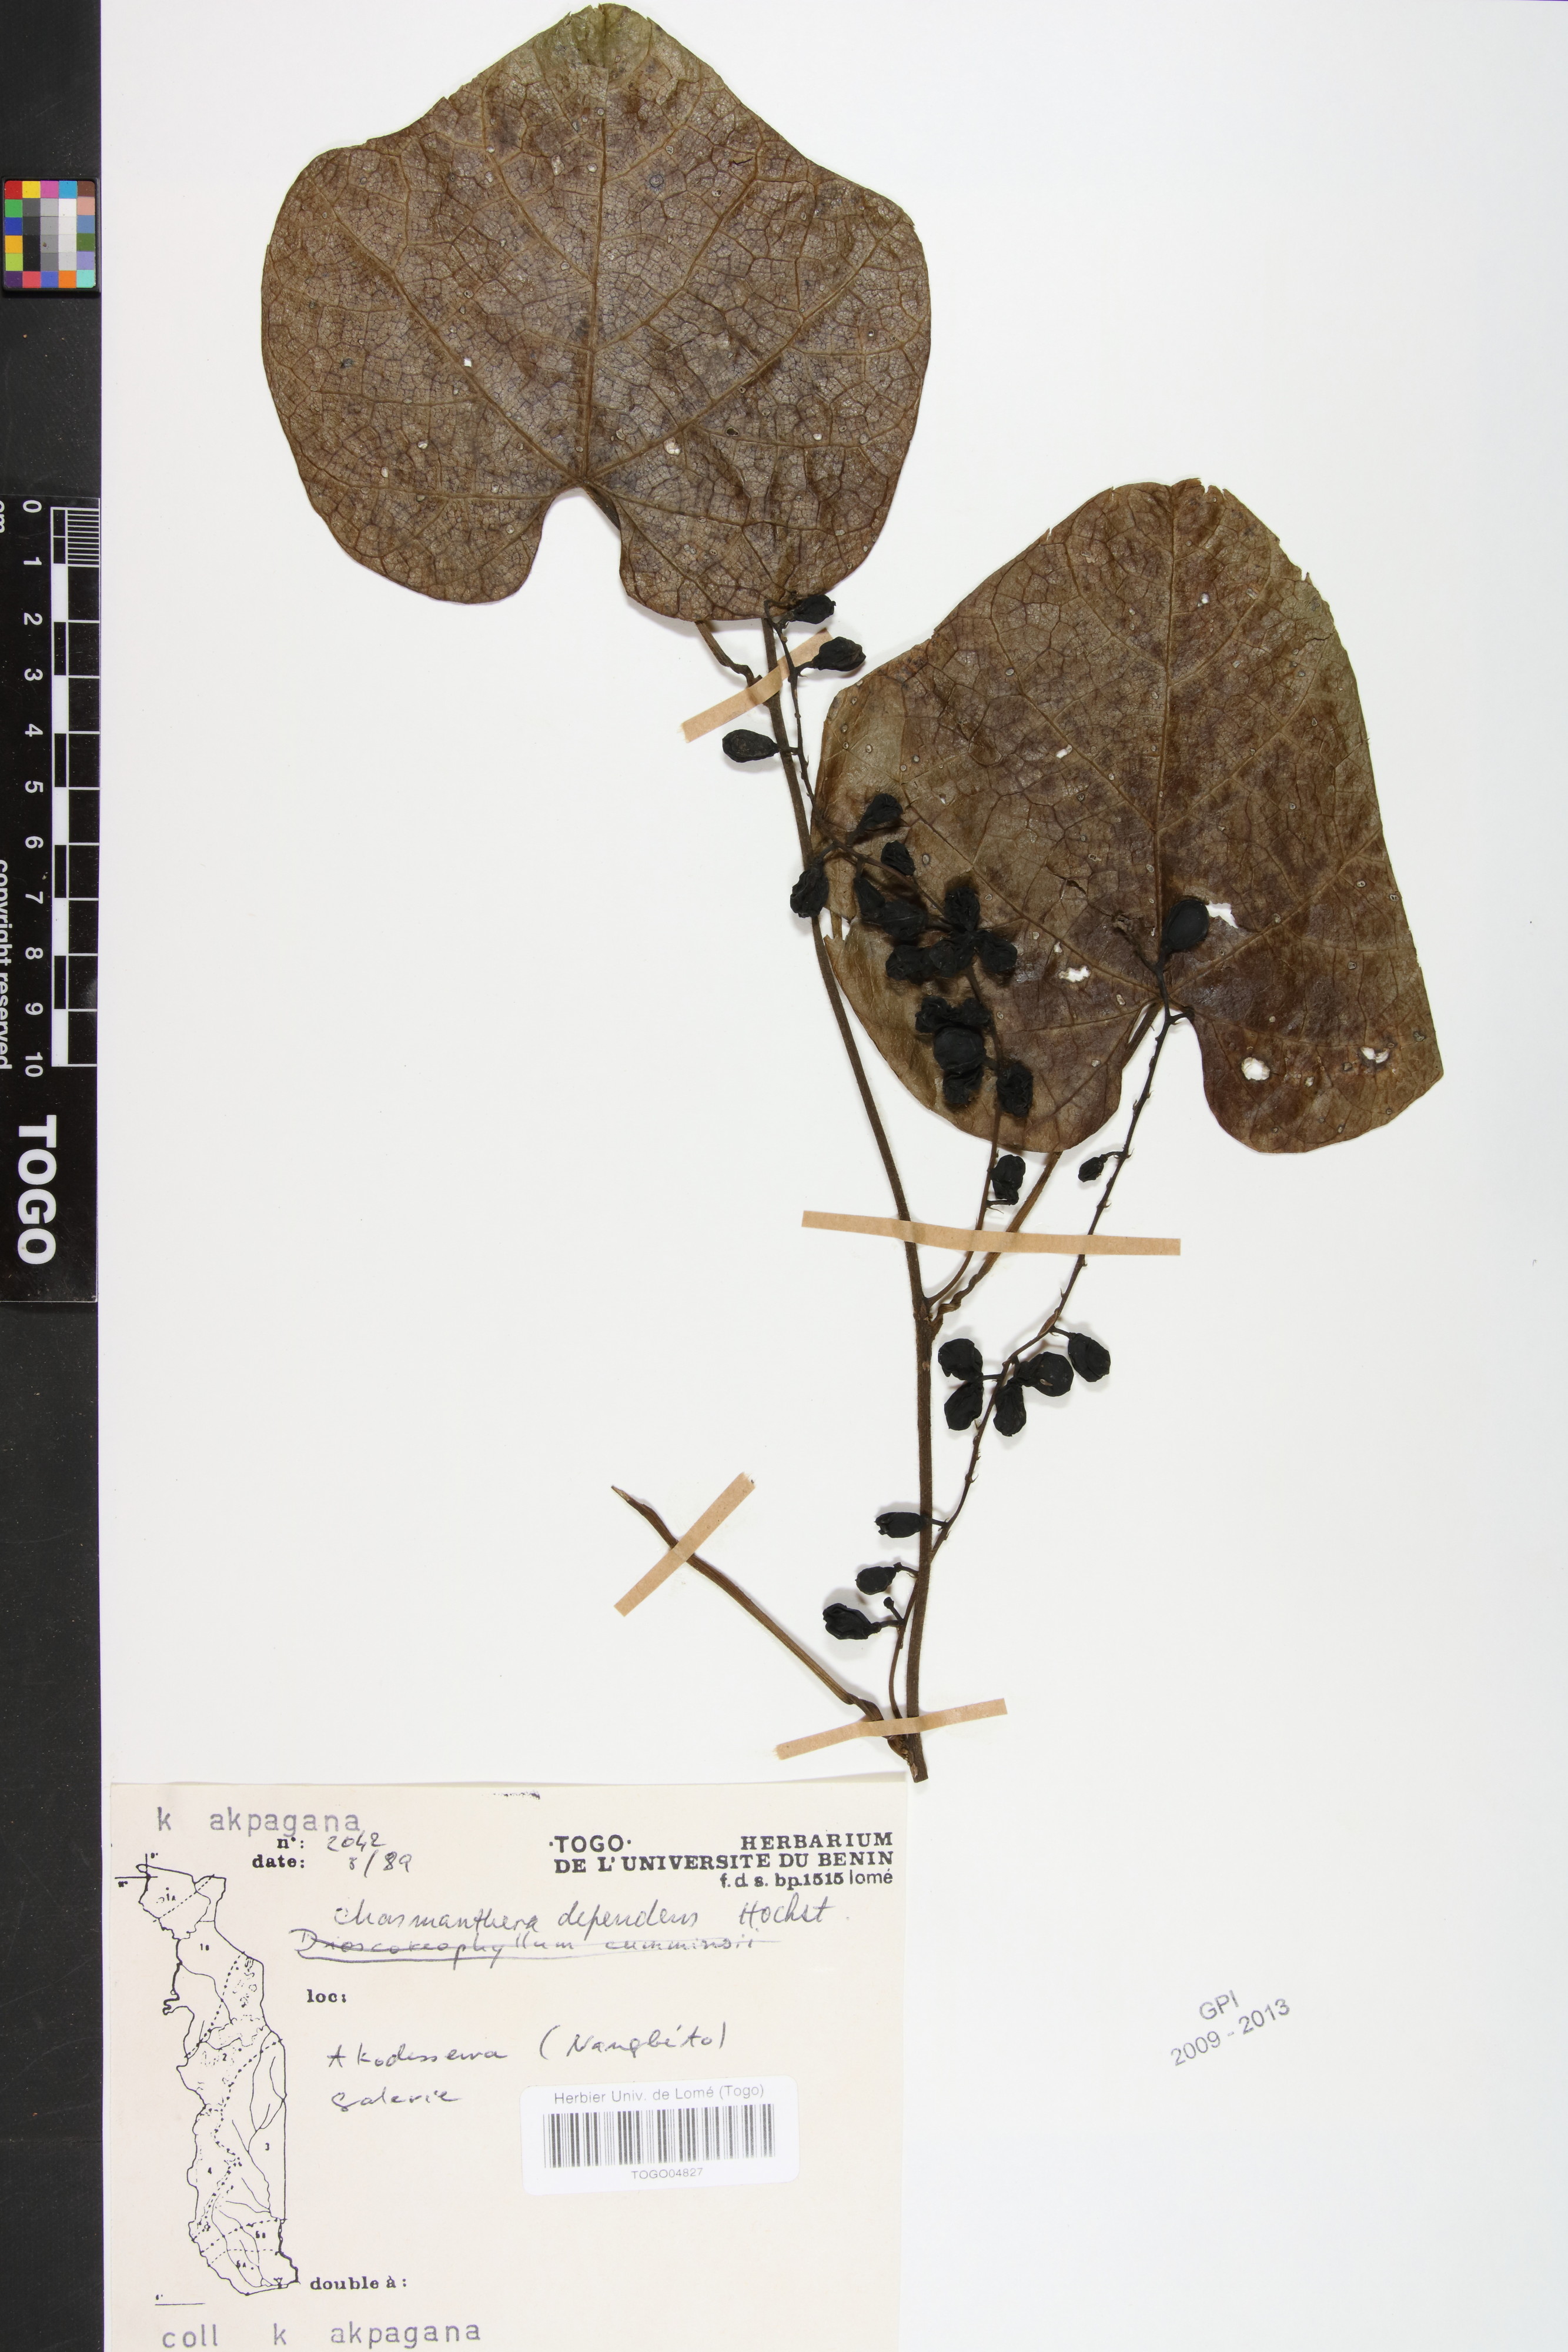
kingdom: Plantae
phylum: Tracheophyta
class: Magnoliopsida
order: Ranunculales
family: Menispermaceae
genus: Chasmanthera
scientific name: Chasmanthera dependens
